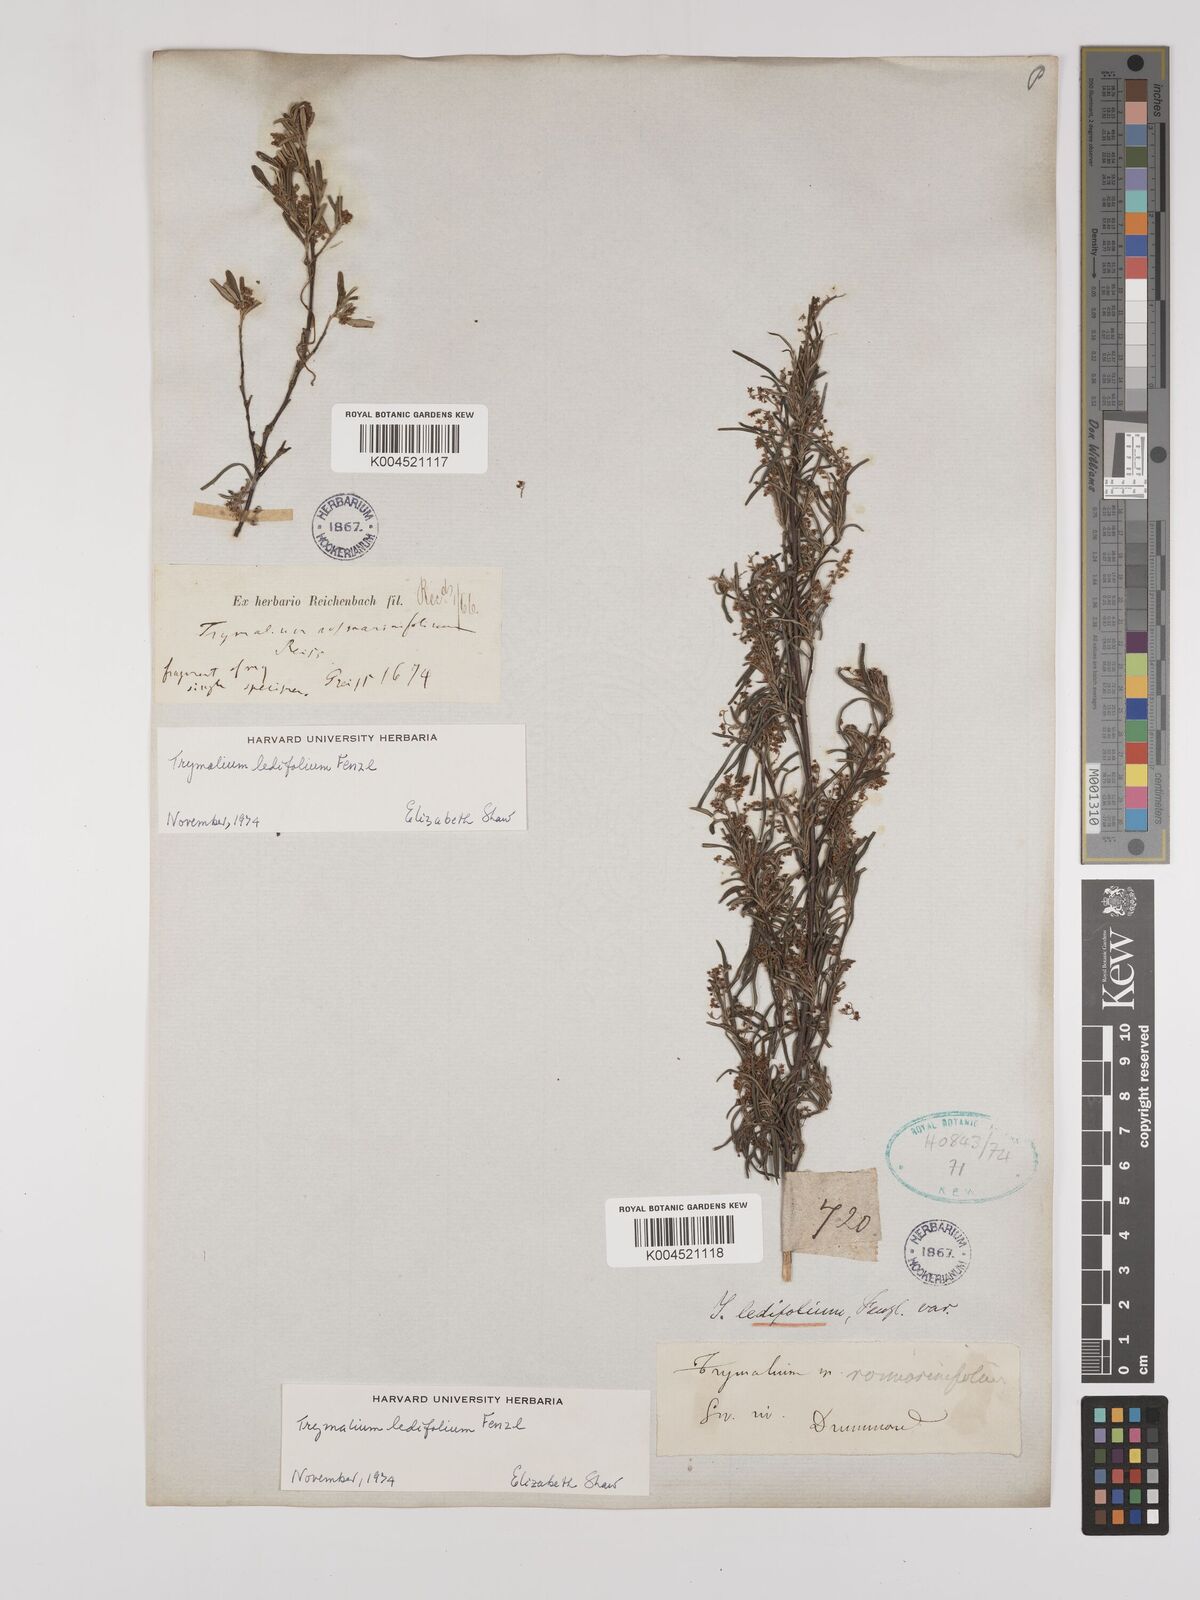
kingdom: Plantae
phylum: Tracheophyta
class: Magnoliopsida
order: Rosales
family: Rhamnaceae
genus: Trymalium
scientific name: Trymalium ledifolium
